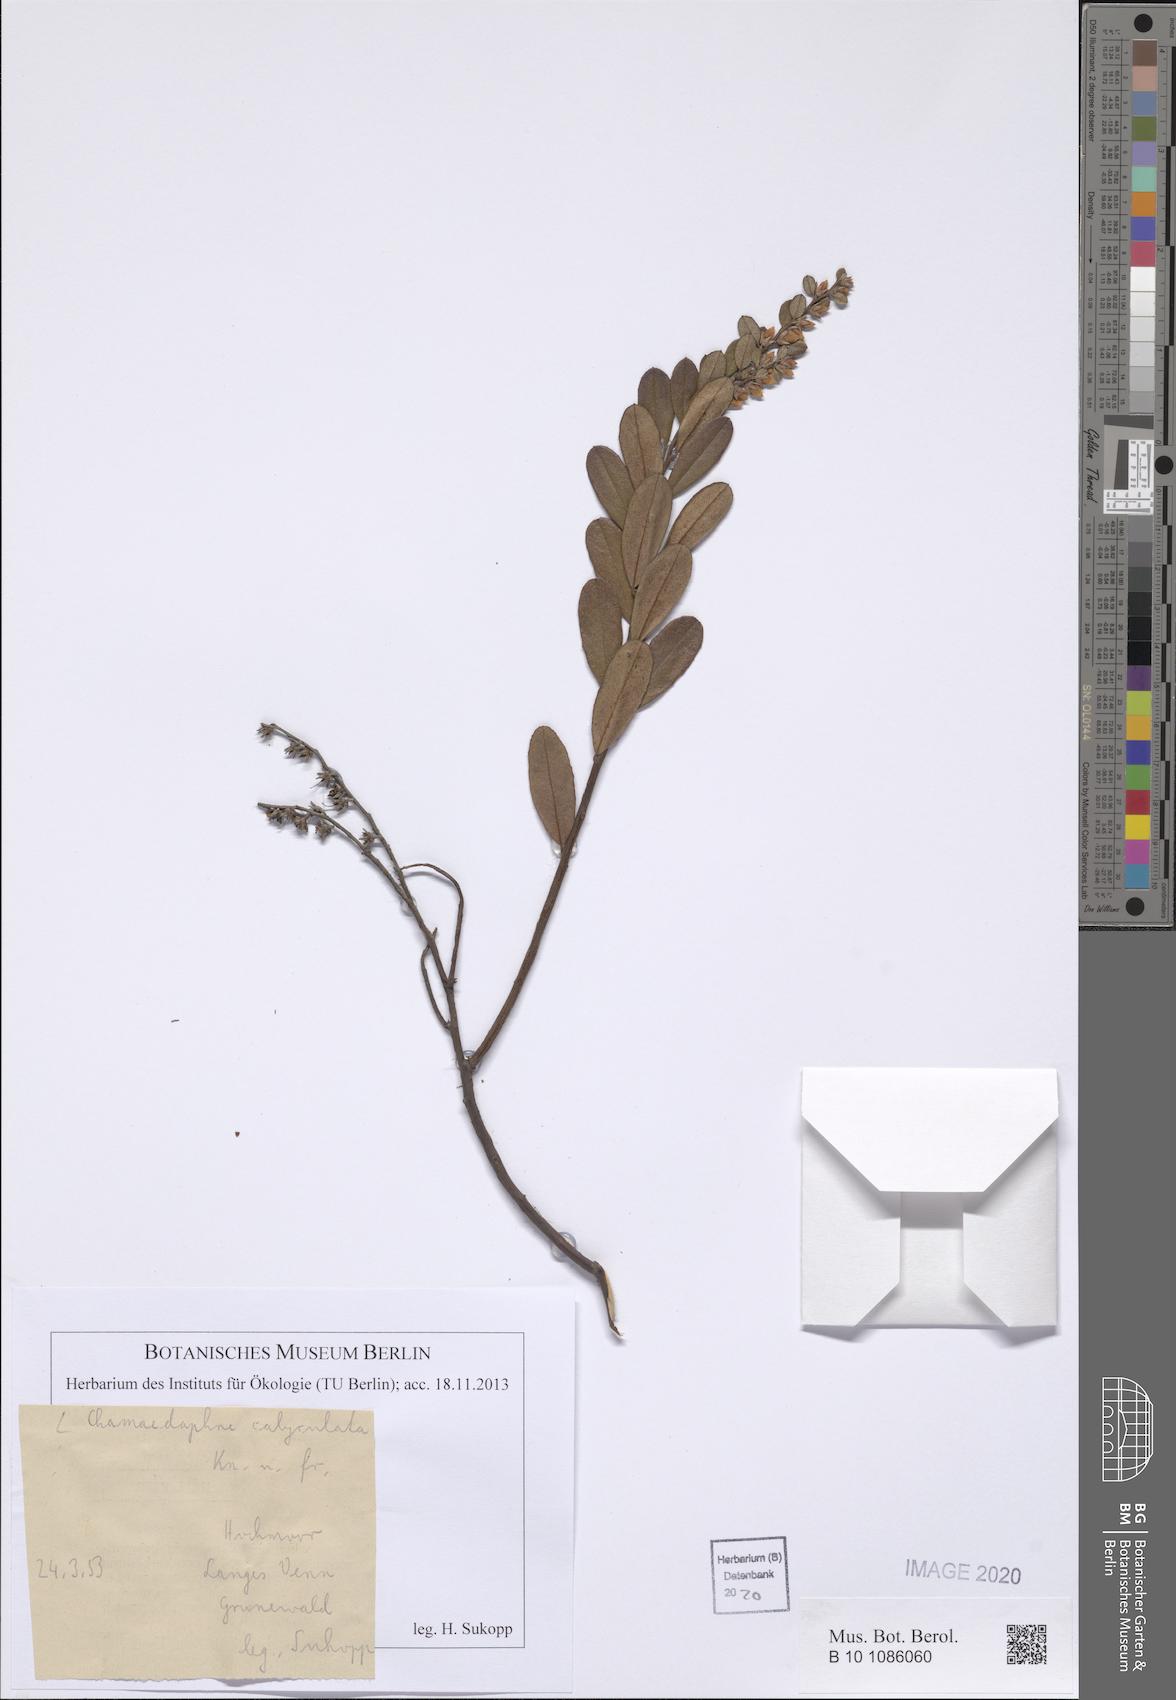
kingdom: Plantae
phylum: Tracheophyta
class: Magnoliopsida
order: Ericales
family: Ericaceae
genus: Chamaedaphne
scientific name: Chamaedaphne calyculata
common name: Leatherleaf
